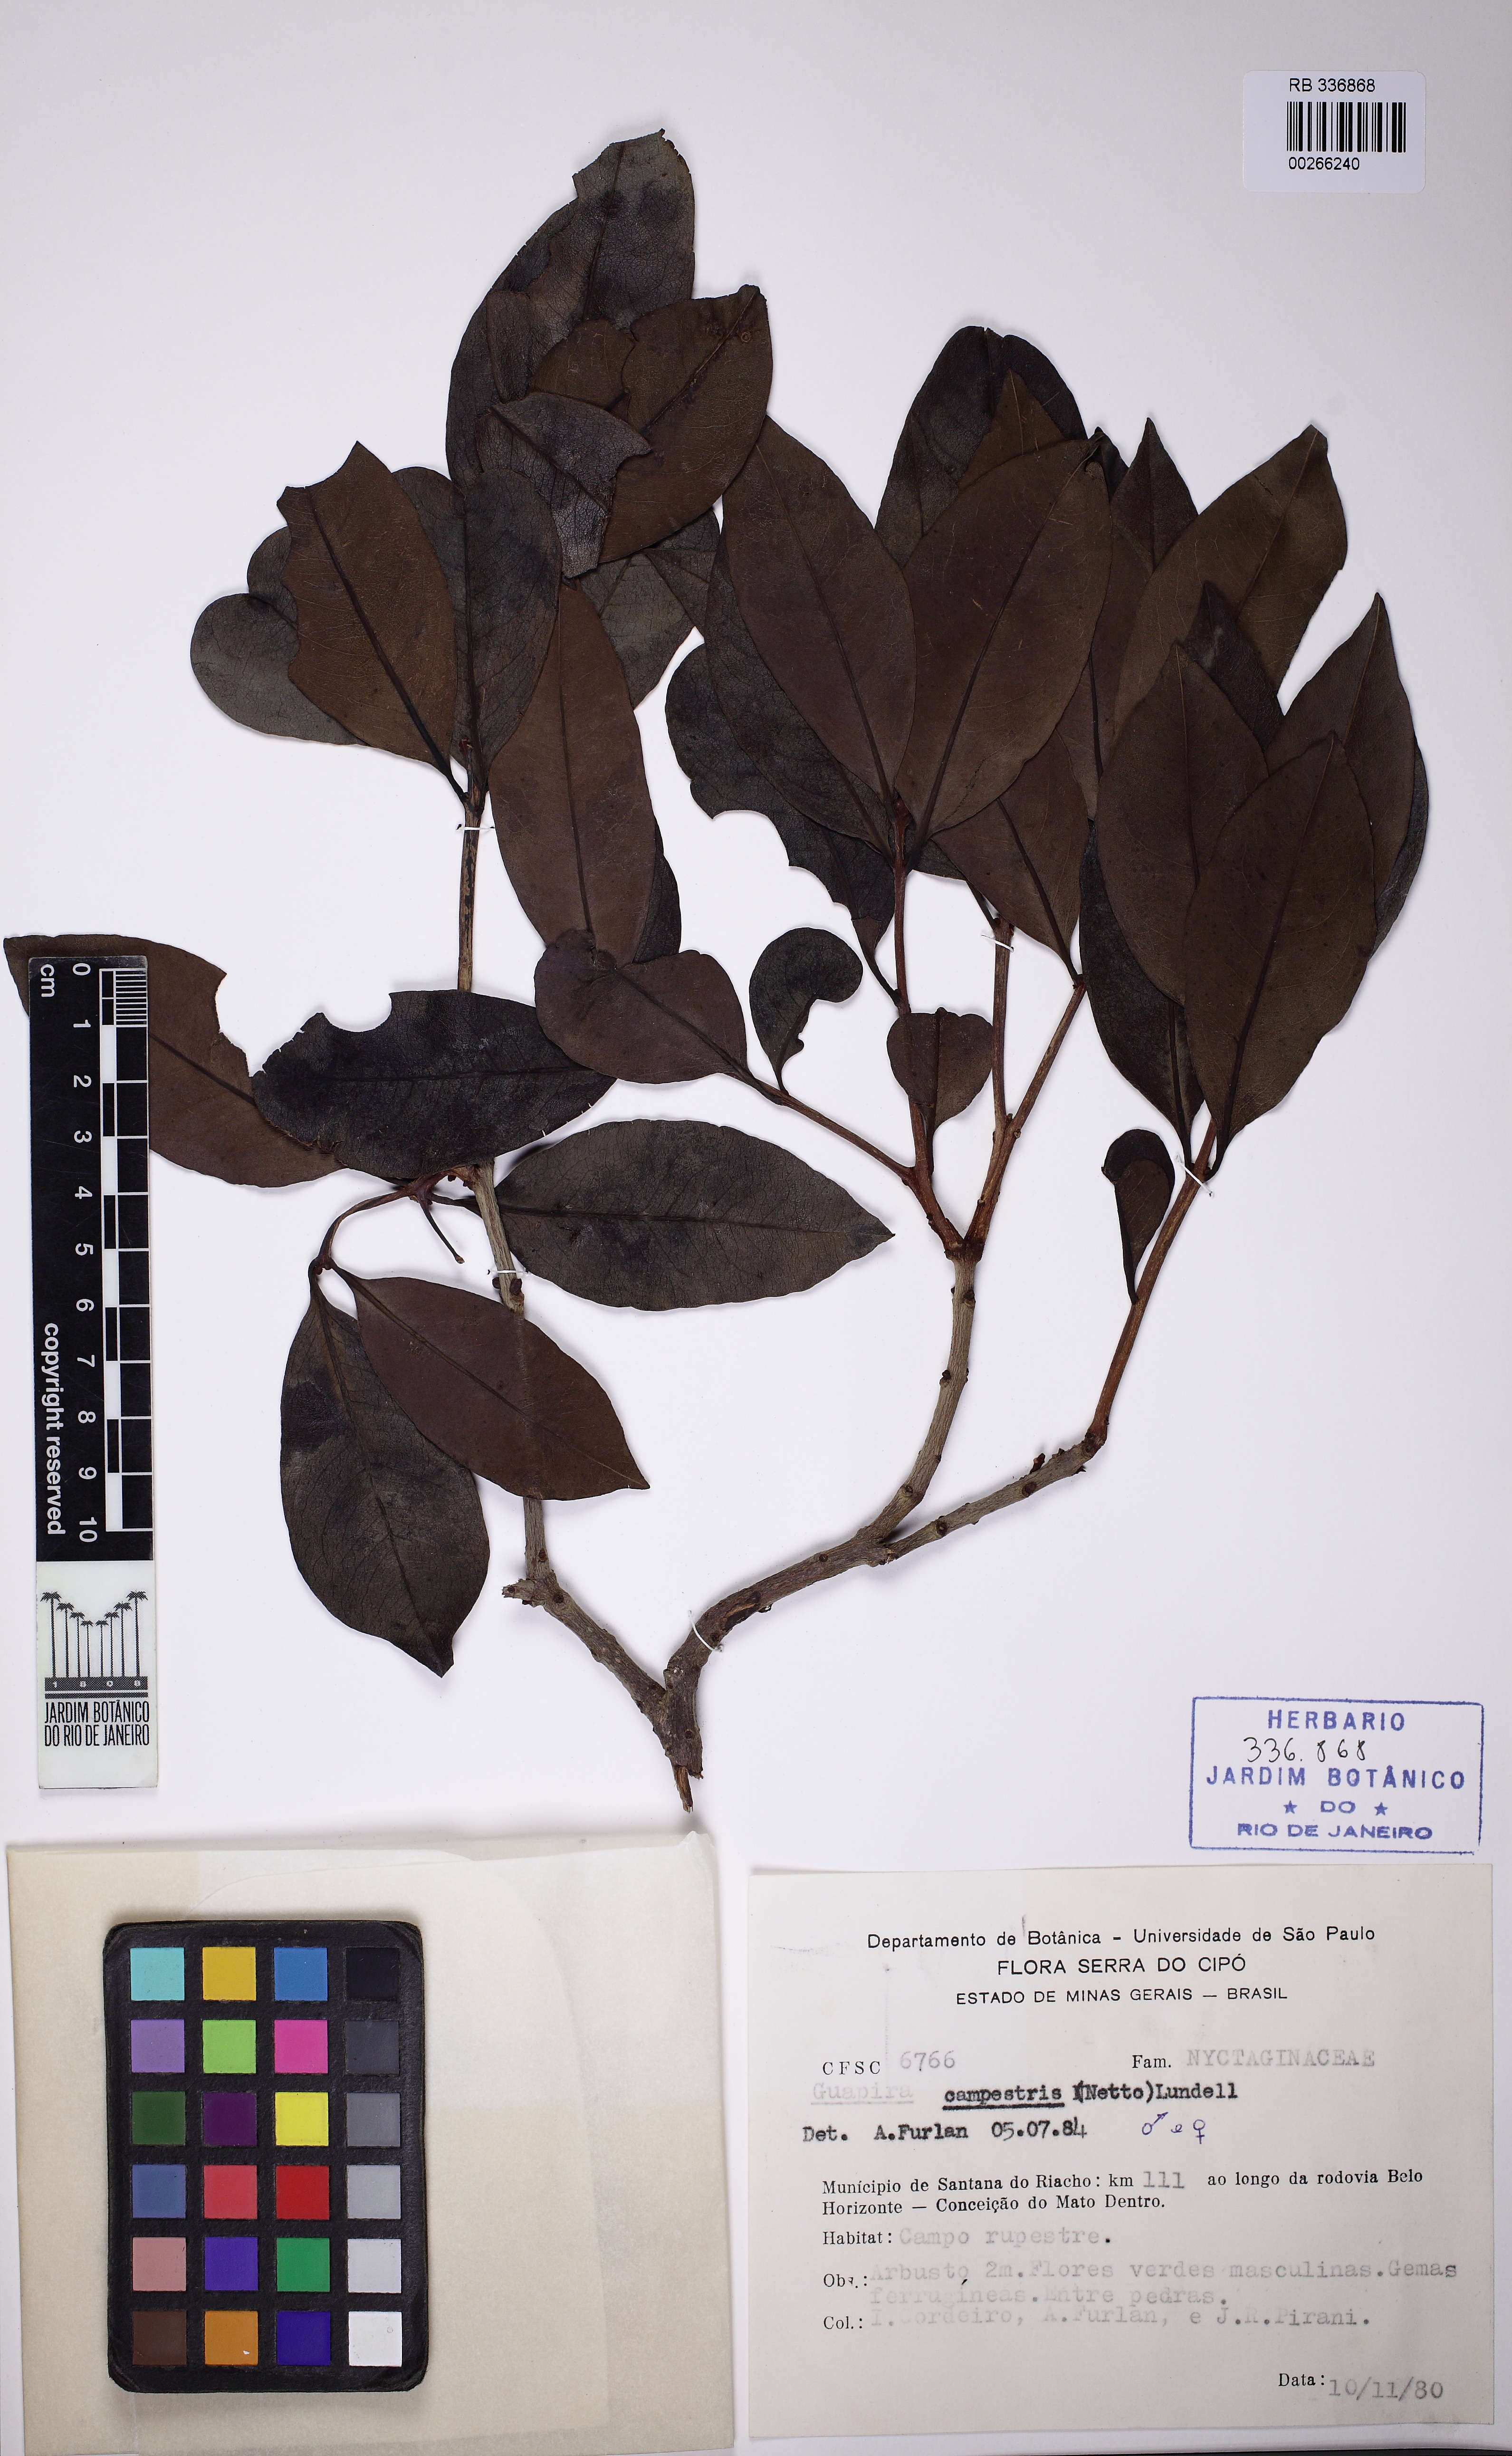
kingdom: Plantae
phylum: Tracheophyta
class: Magnoliopsida
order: Caryophyllales
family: Nyctaginaceae
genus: Guapira
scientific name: Guapira campestris
